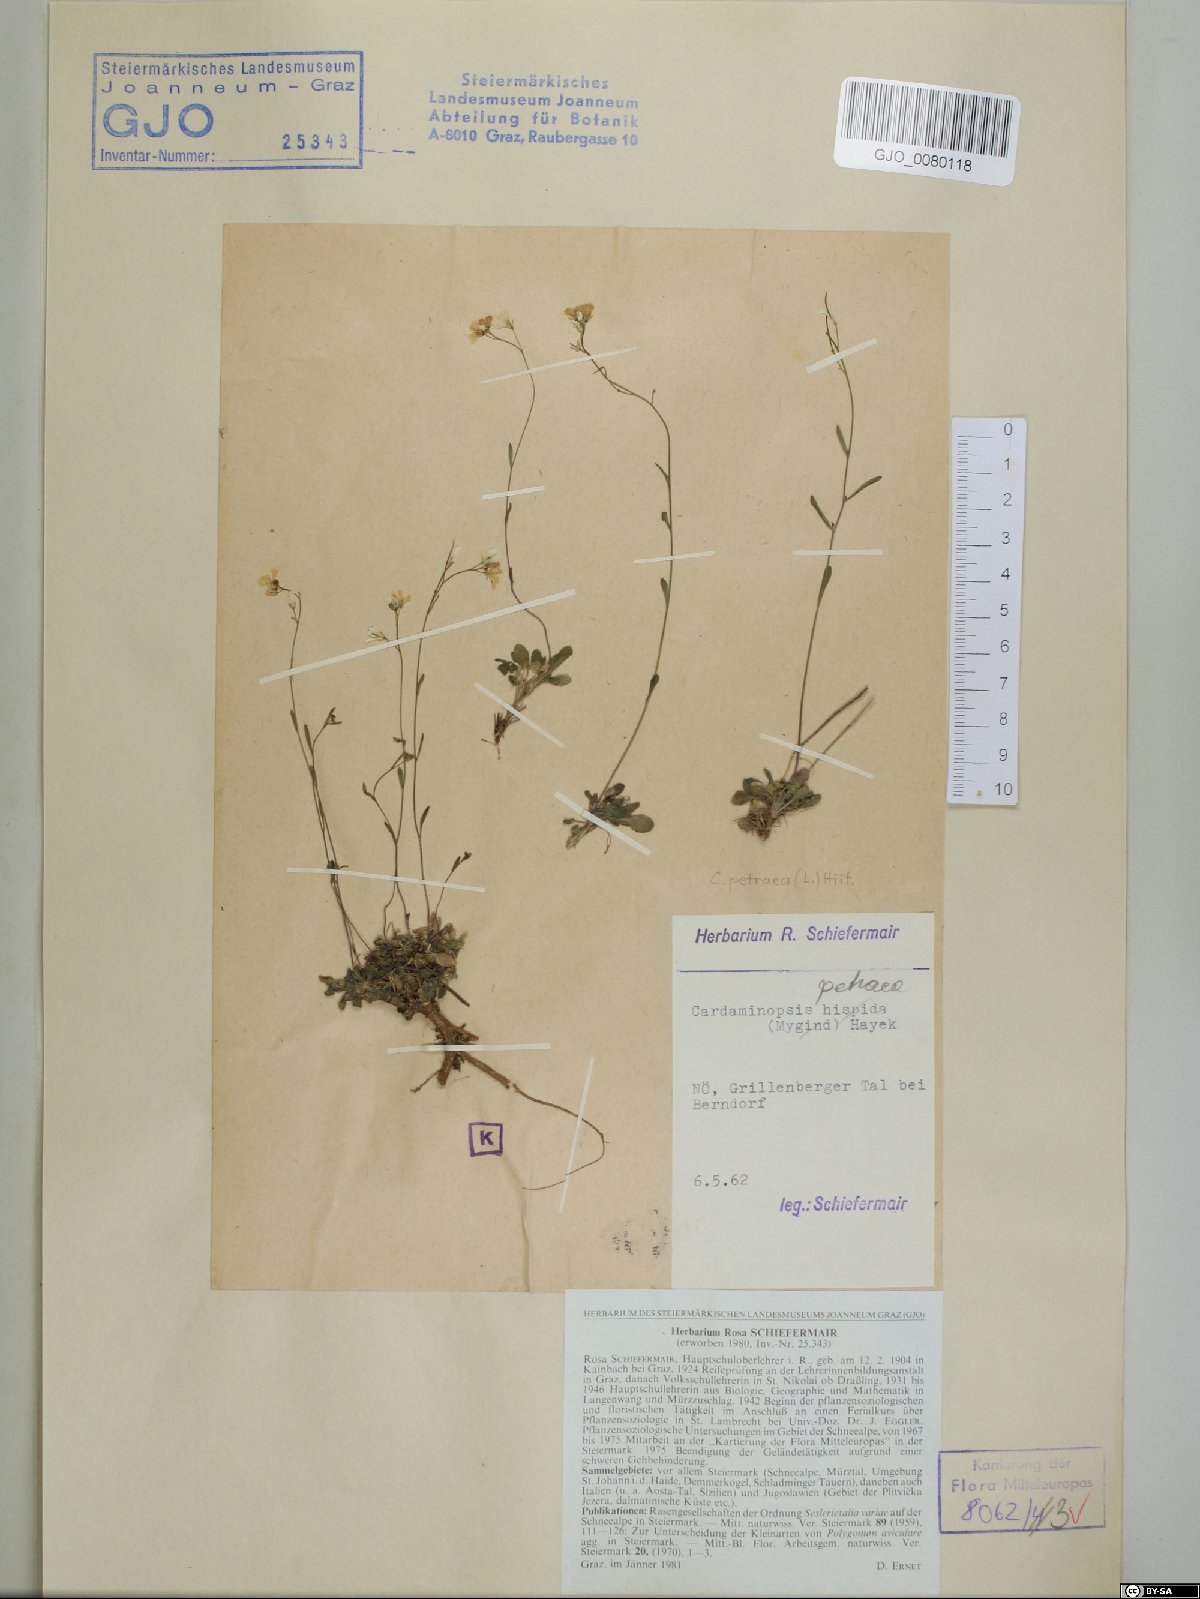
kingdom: Plantae
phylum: Tracheophyta
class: Magnoliopsida
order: Brassicales
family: Brassicaceae
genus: Arabidopsis
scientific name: Arabidopsis lyrata
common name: Lyrate rockcress
